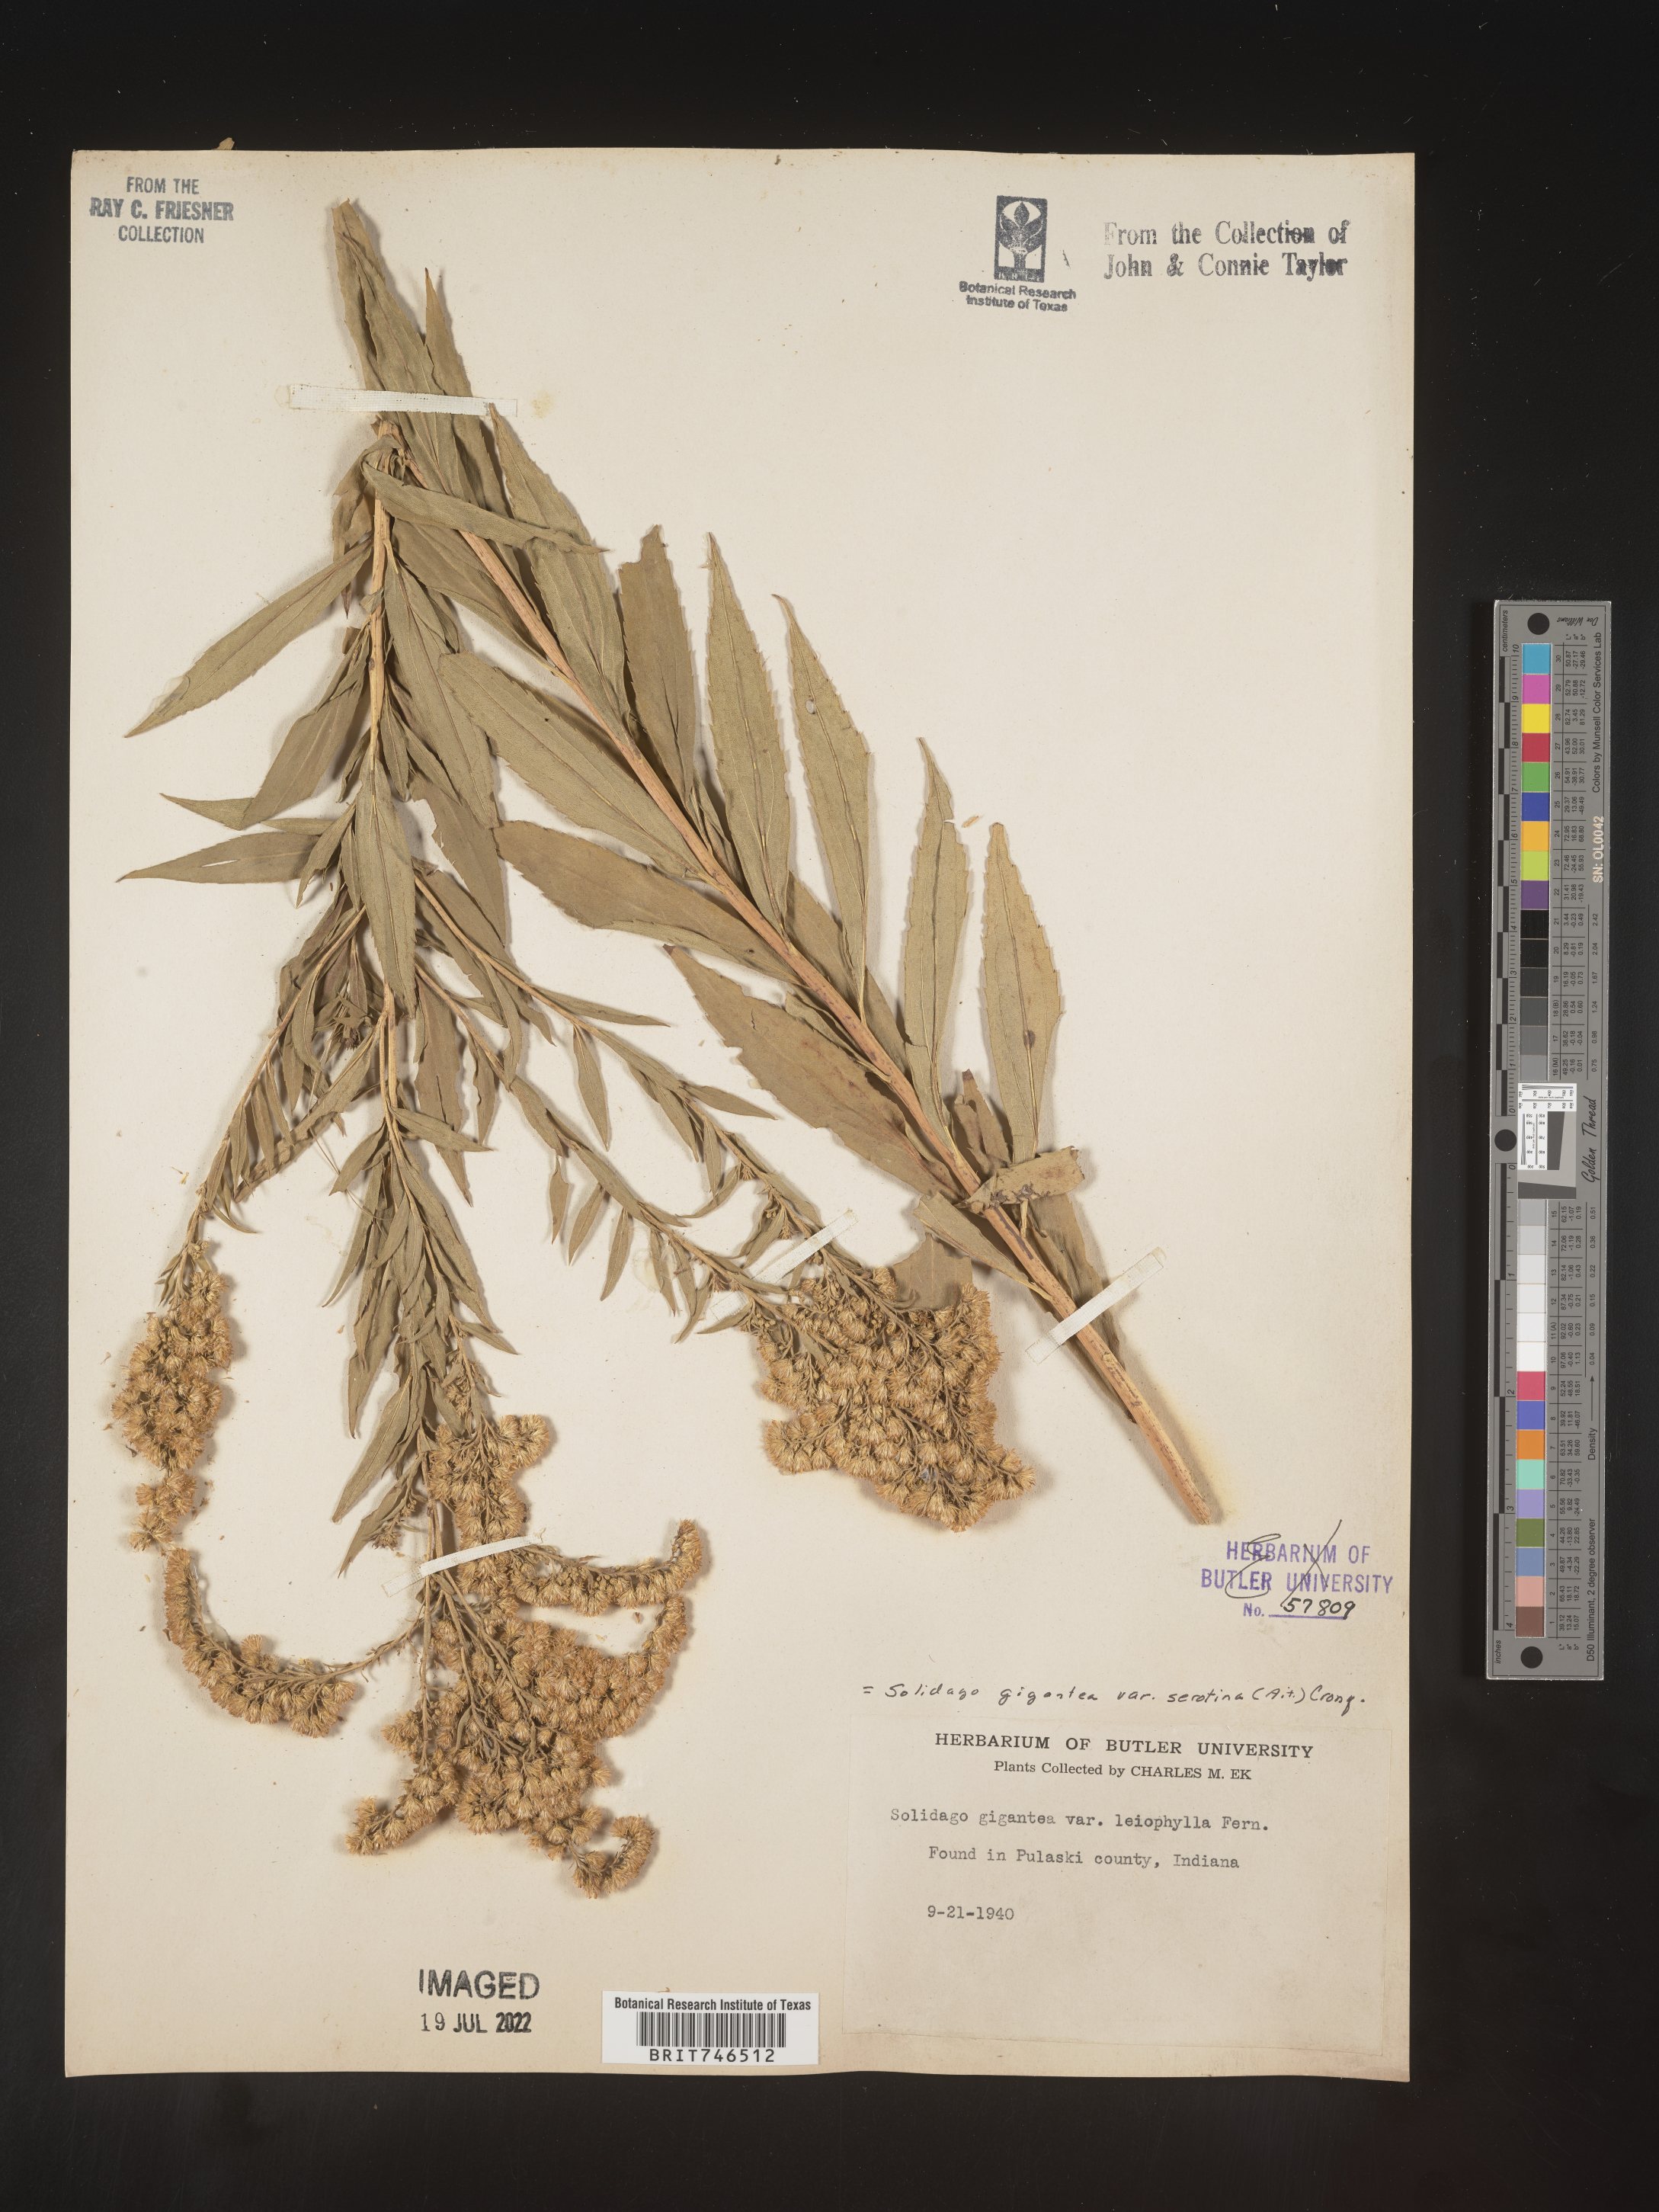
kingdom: Plantae
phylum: Tracheophyta
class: Magnoliopsida
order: Asterales
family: Asteraceae
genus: Solidago
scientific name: Solidago gigantea
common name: Giant goldenrod
